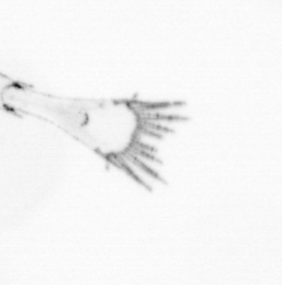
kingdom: Animalia
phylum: Arthropoda
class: Malacostraca
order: Decapoda
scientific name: Decapoda
